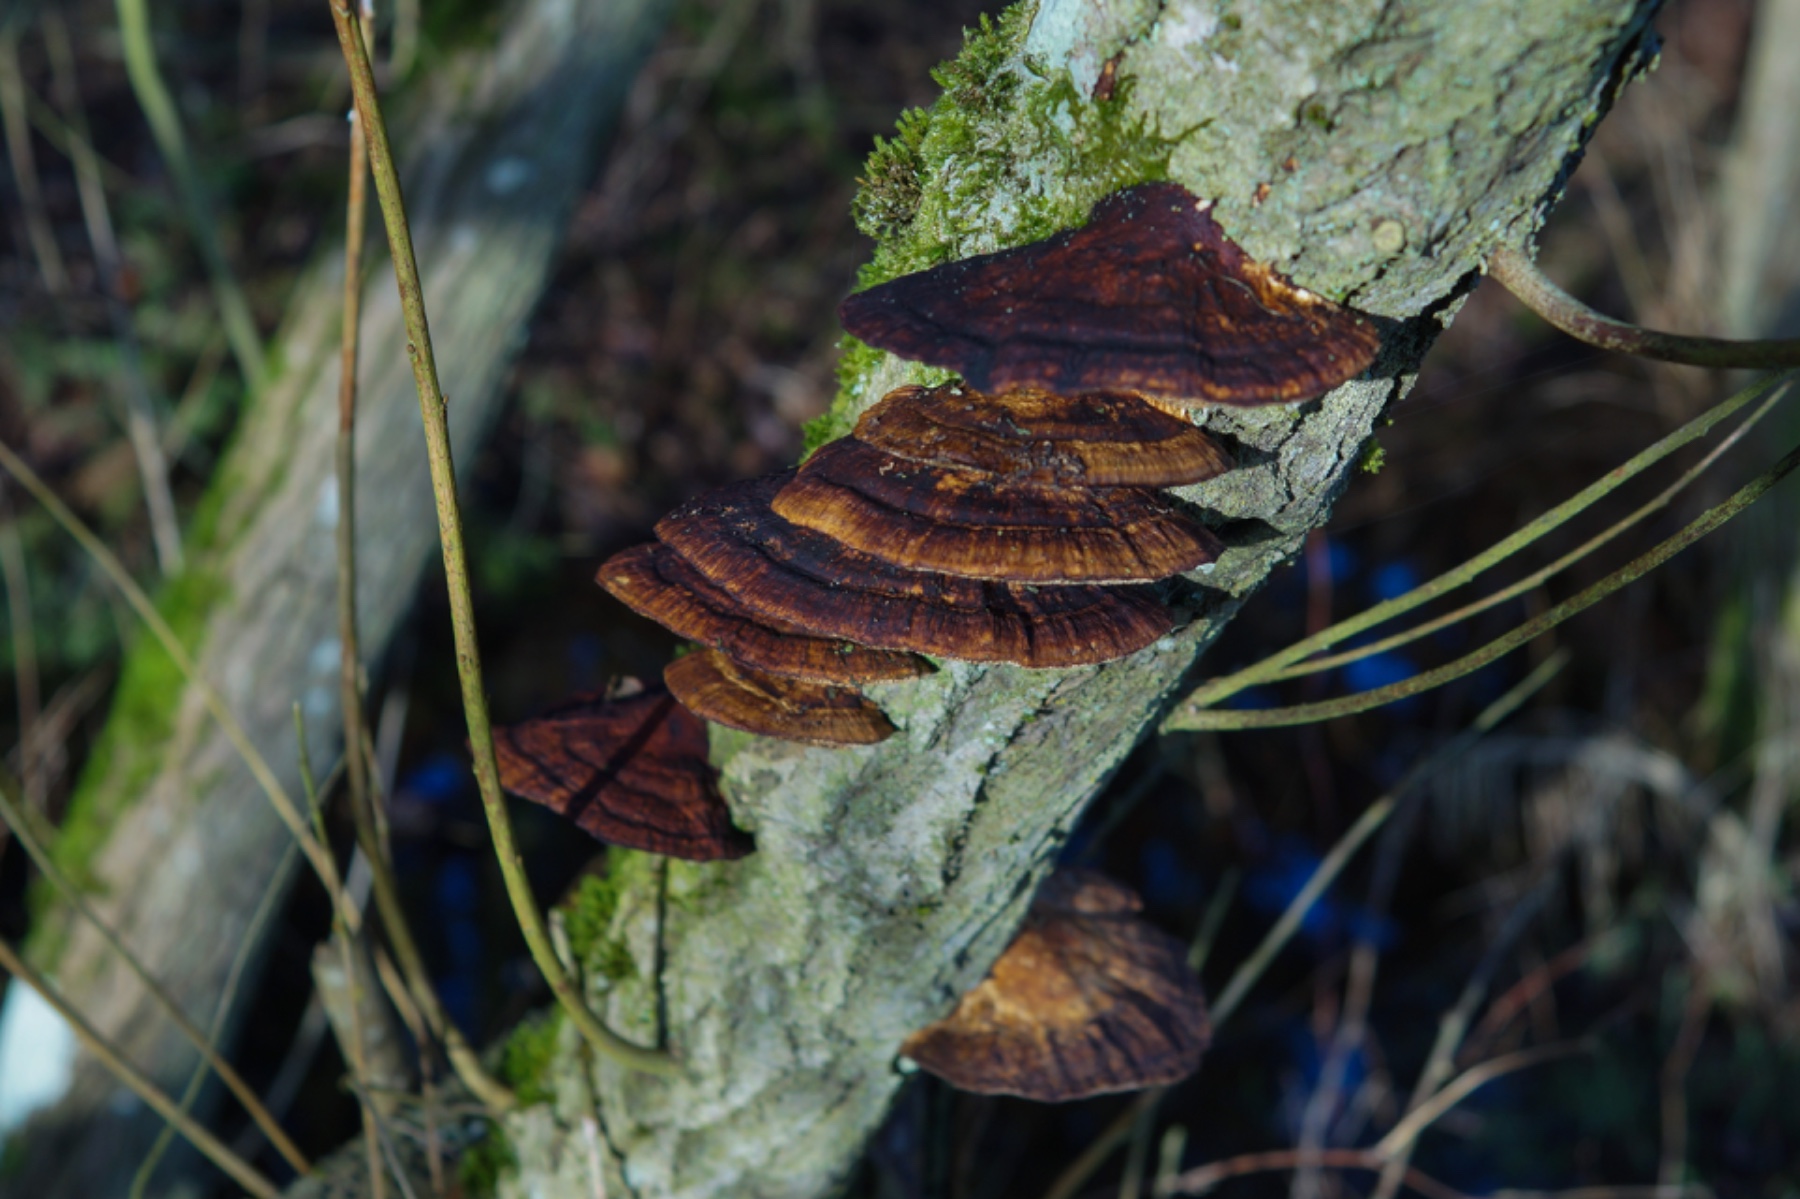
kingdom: Fungi
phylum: Basidiomycota
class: Agaricomycetes
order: Polyporales
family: Polyporaceae
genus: Daedaleopsis
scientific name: Daedaleopsis confragosa
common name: rødmende læderporesvamp
